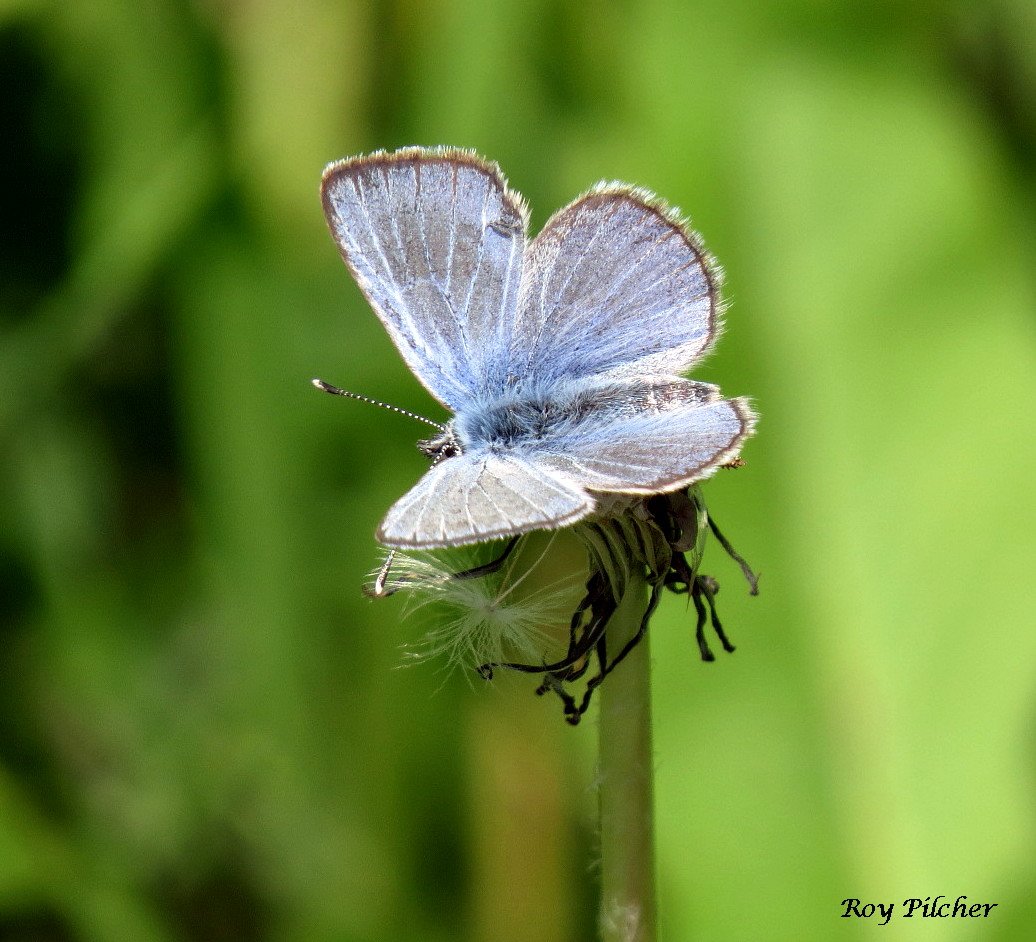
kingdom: Animalia
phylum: Arthropoda
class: Insecta
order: Lepidoptera
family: Lycaenidae
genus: Glaucopsyche
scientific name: Glaucopsyche lygdamus
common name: Silvery Blue
